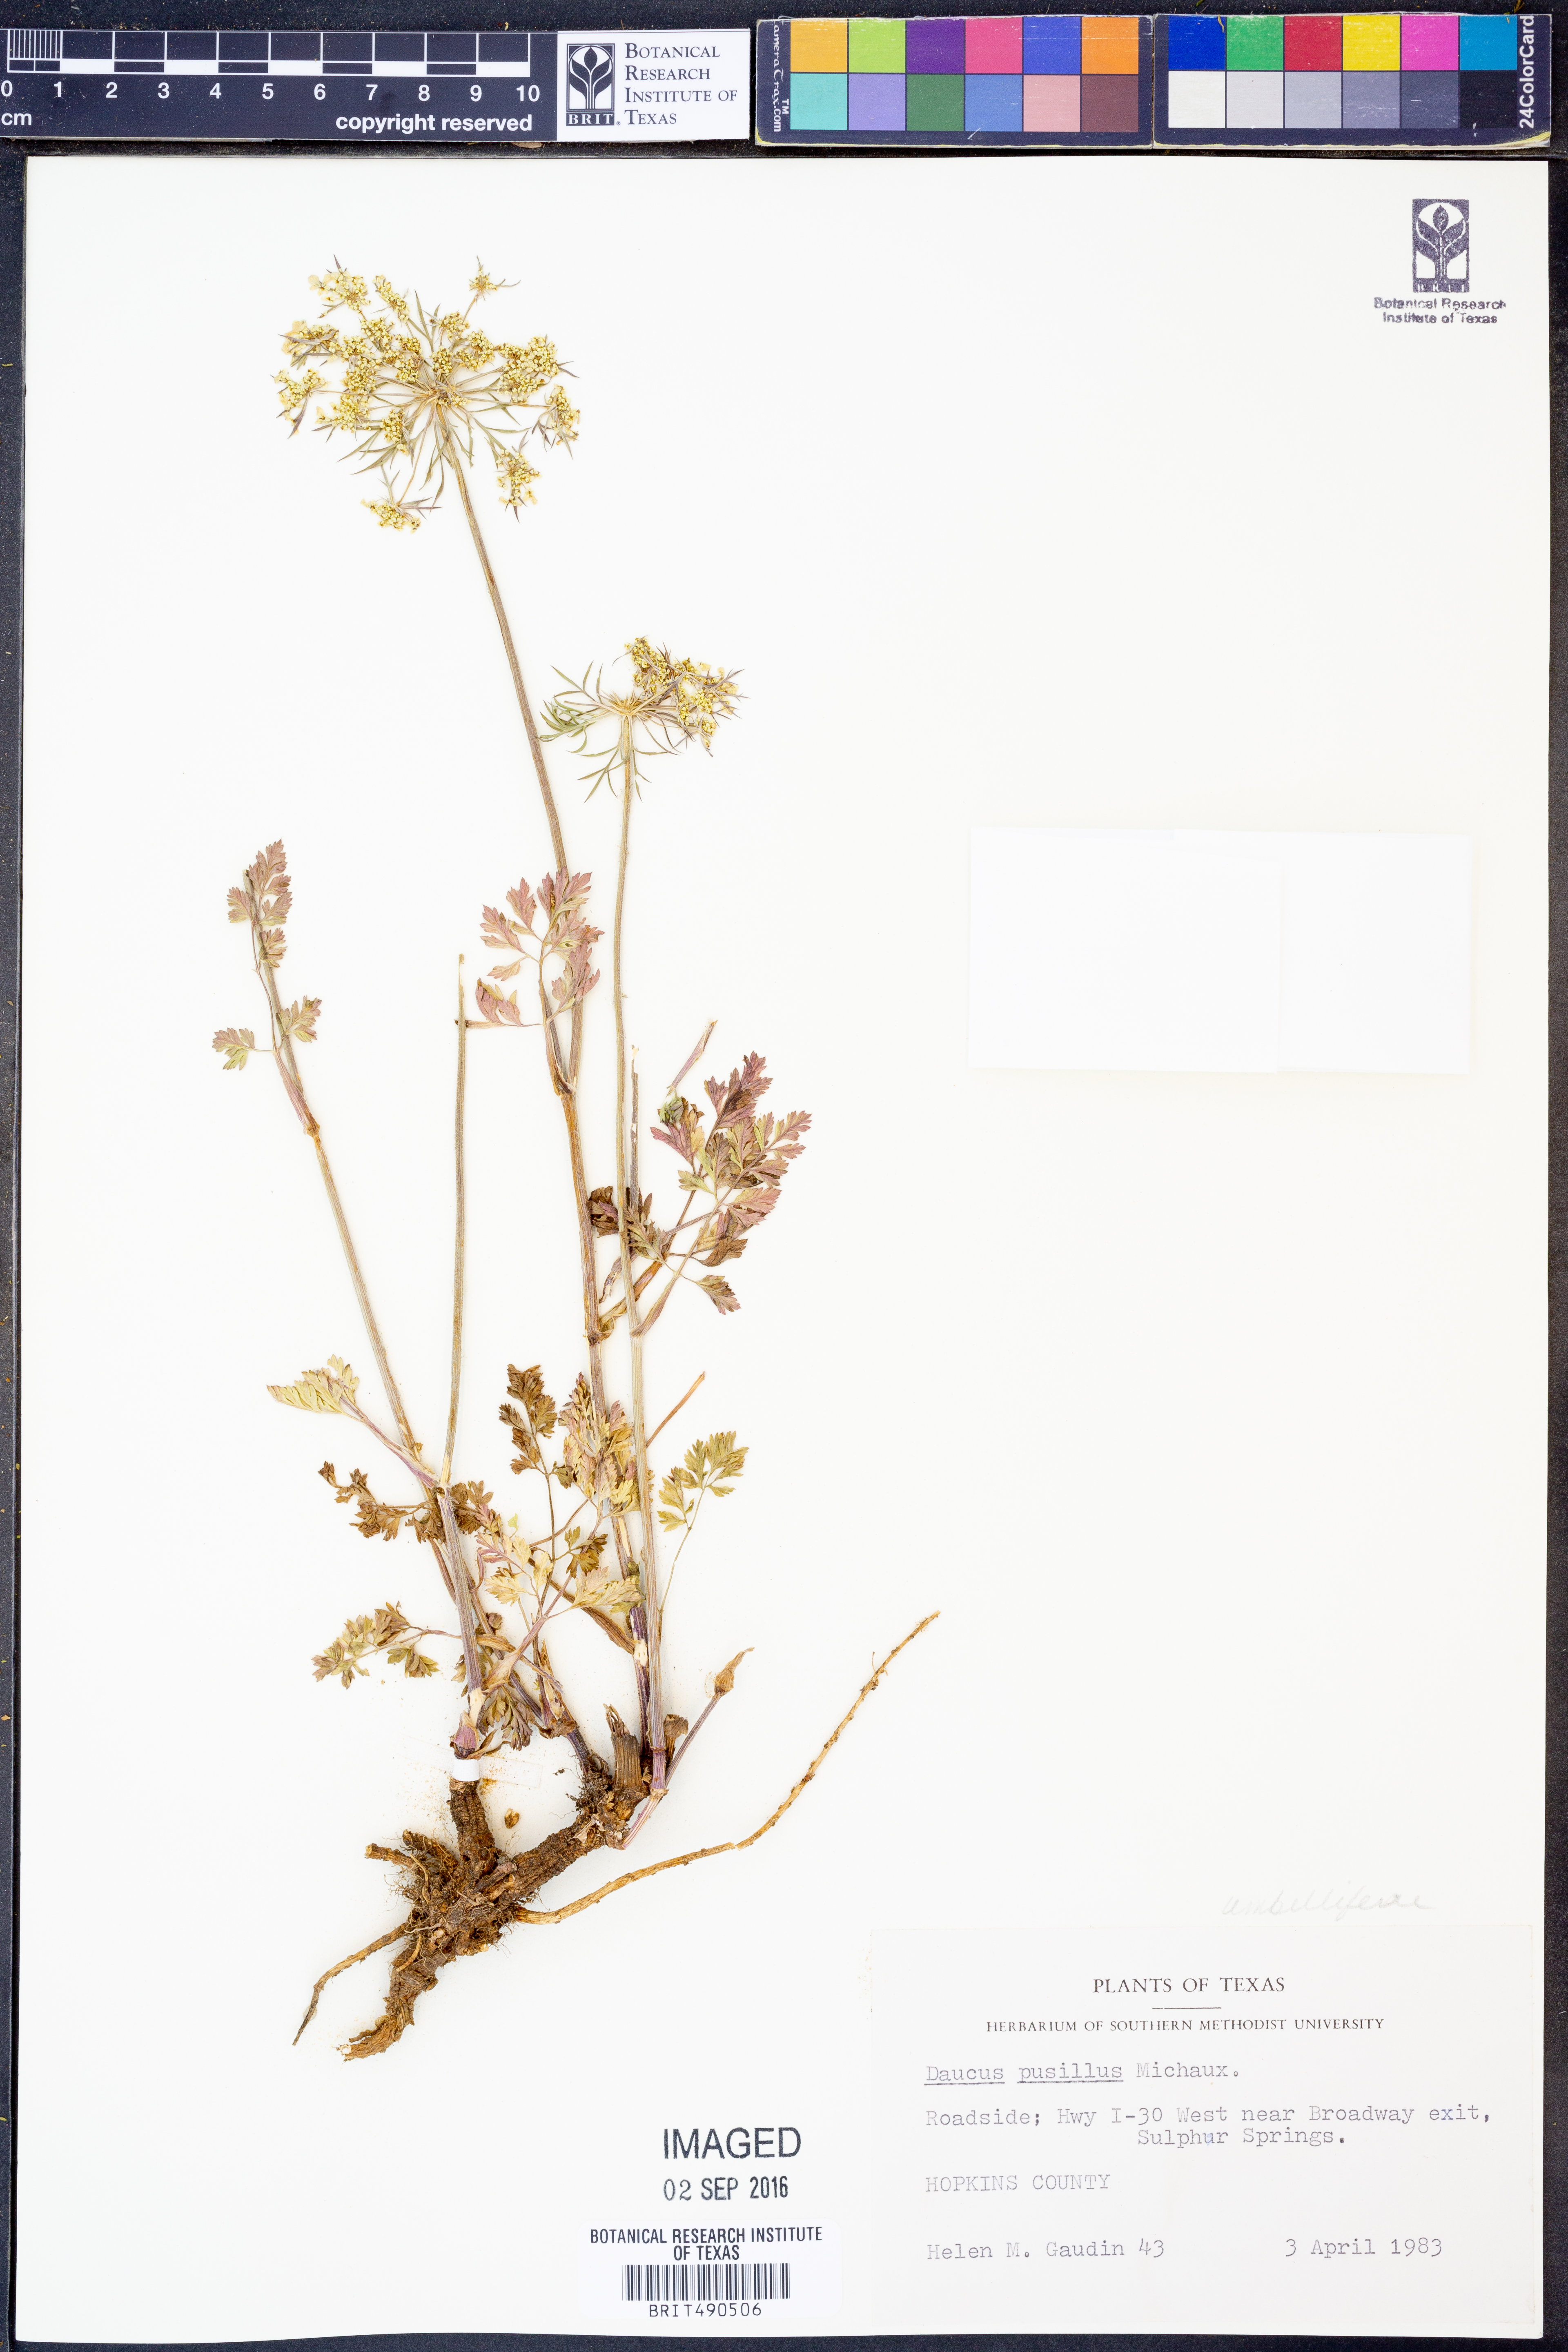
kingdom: Plantae
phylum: Tracheophyta
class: Magnoliopsida
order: Apiales
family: Apiaceae
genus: Daucus
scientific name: Daucus pusillus
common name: Southwest wild carrot
